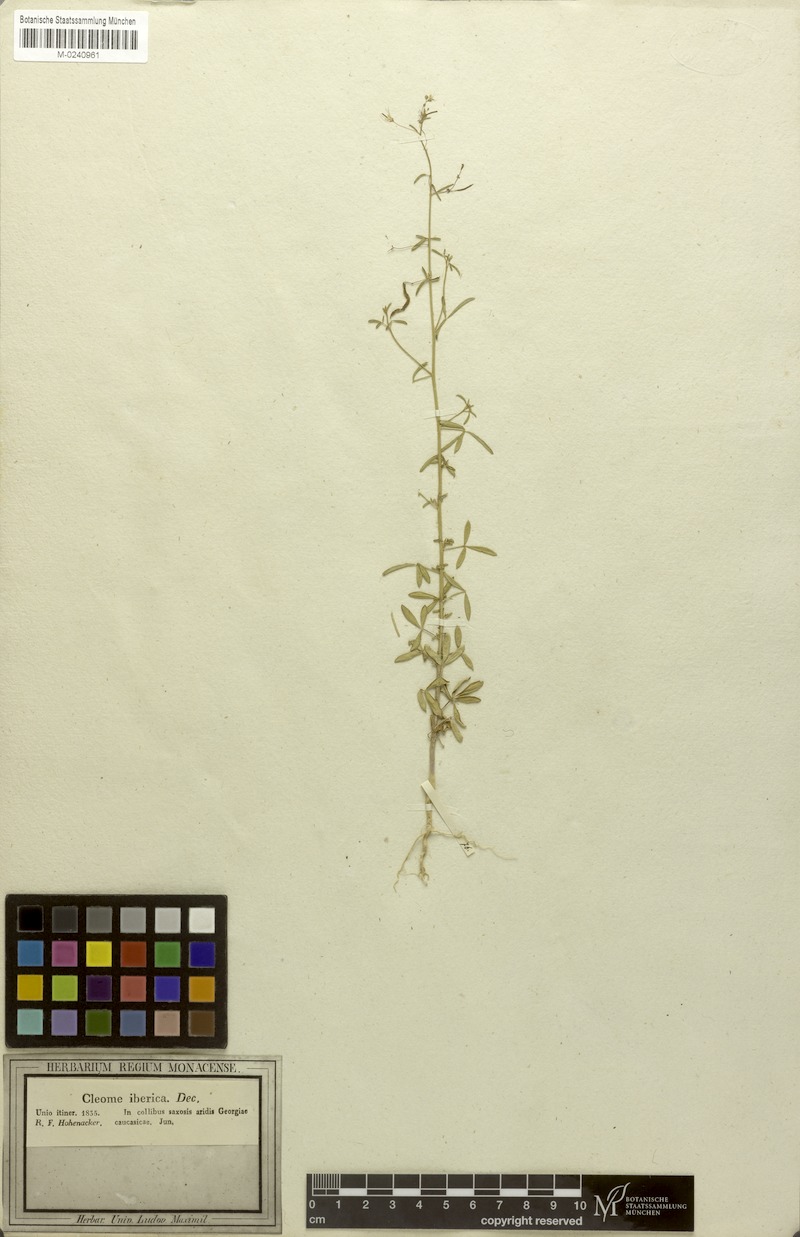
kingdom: Plantae
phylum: Tracheophyta
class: Magnoliopsida
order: Brassicales
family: Cleomaceae
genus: Cleome
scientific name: Cleome ornithopodioides
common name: Bird spiderflower
